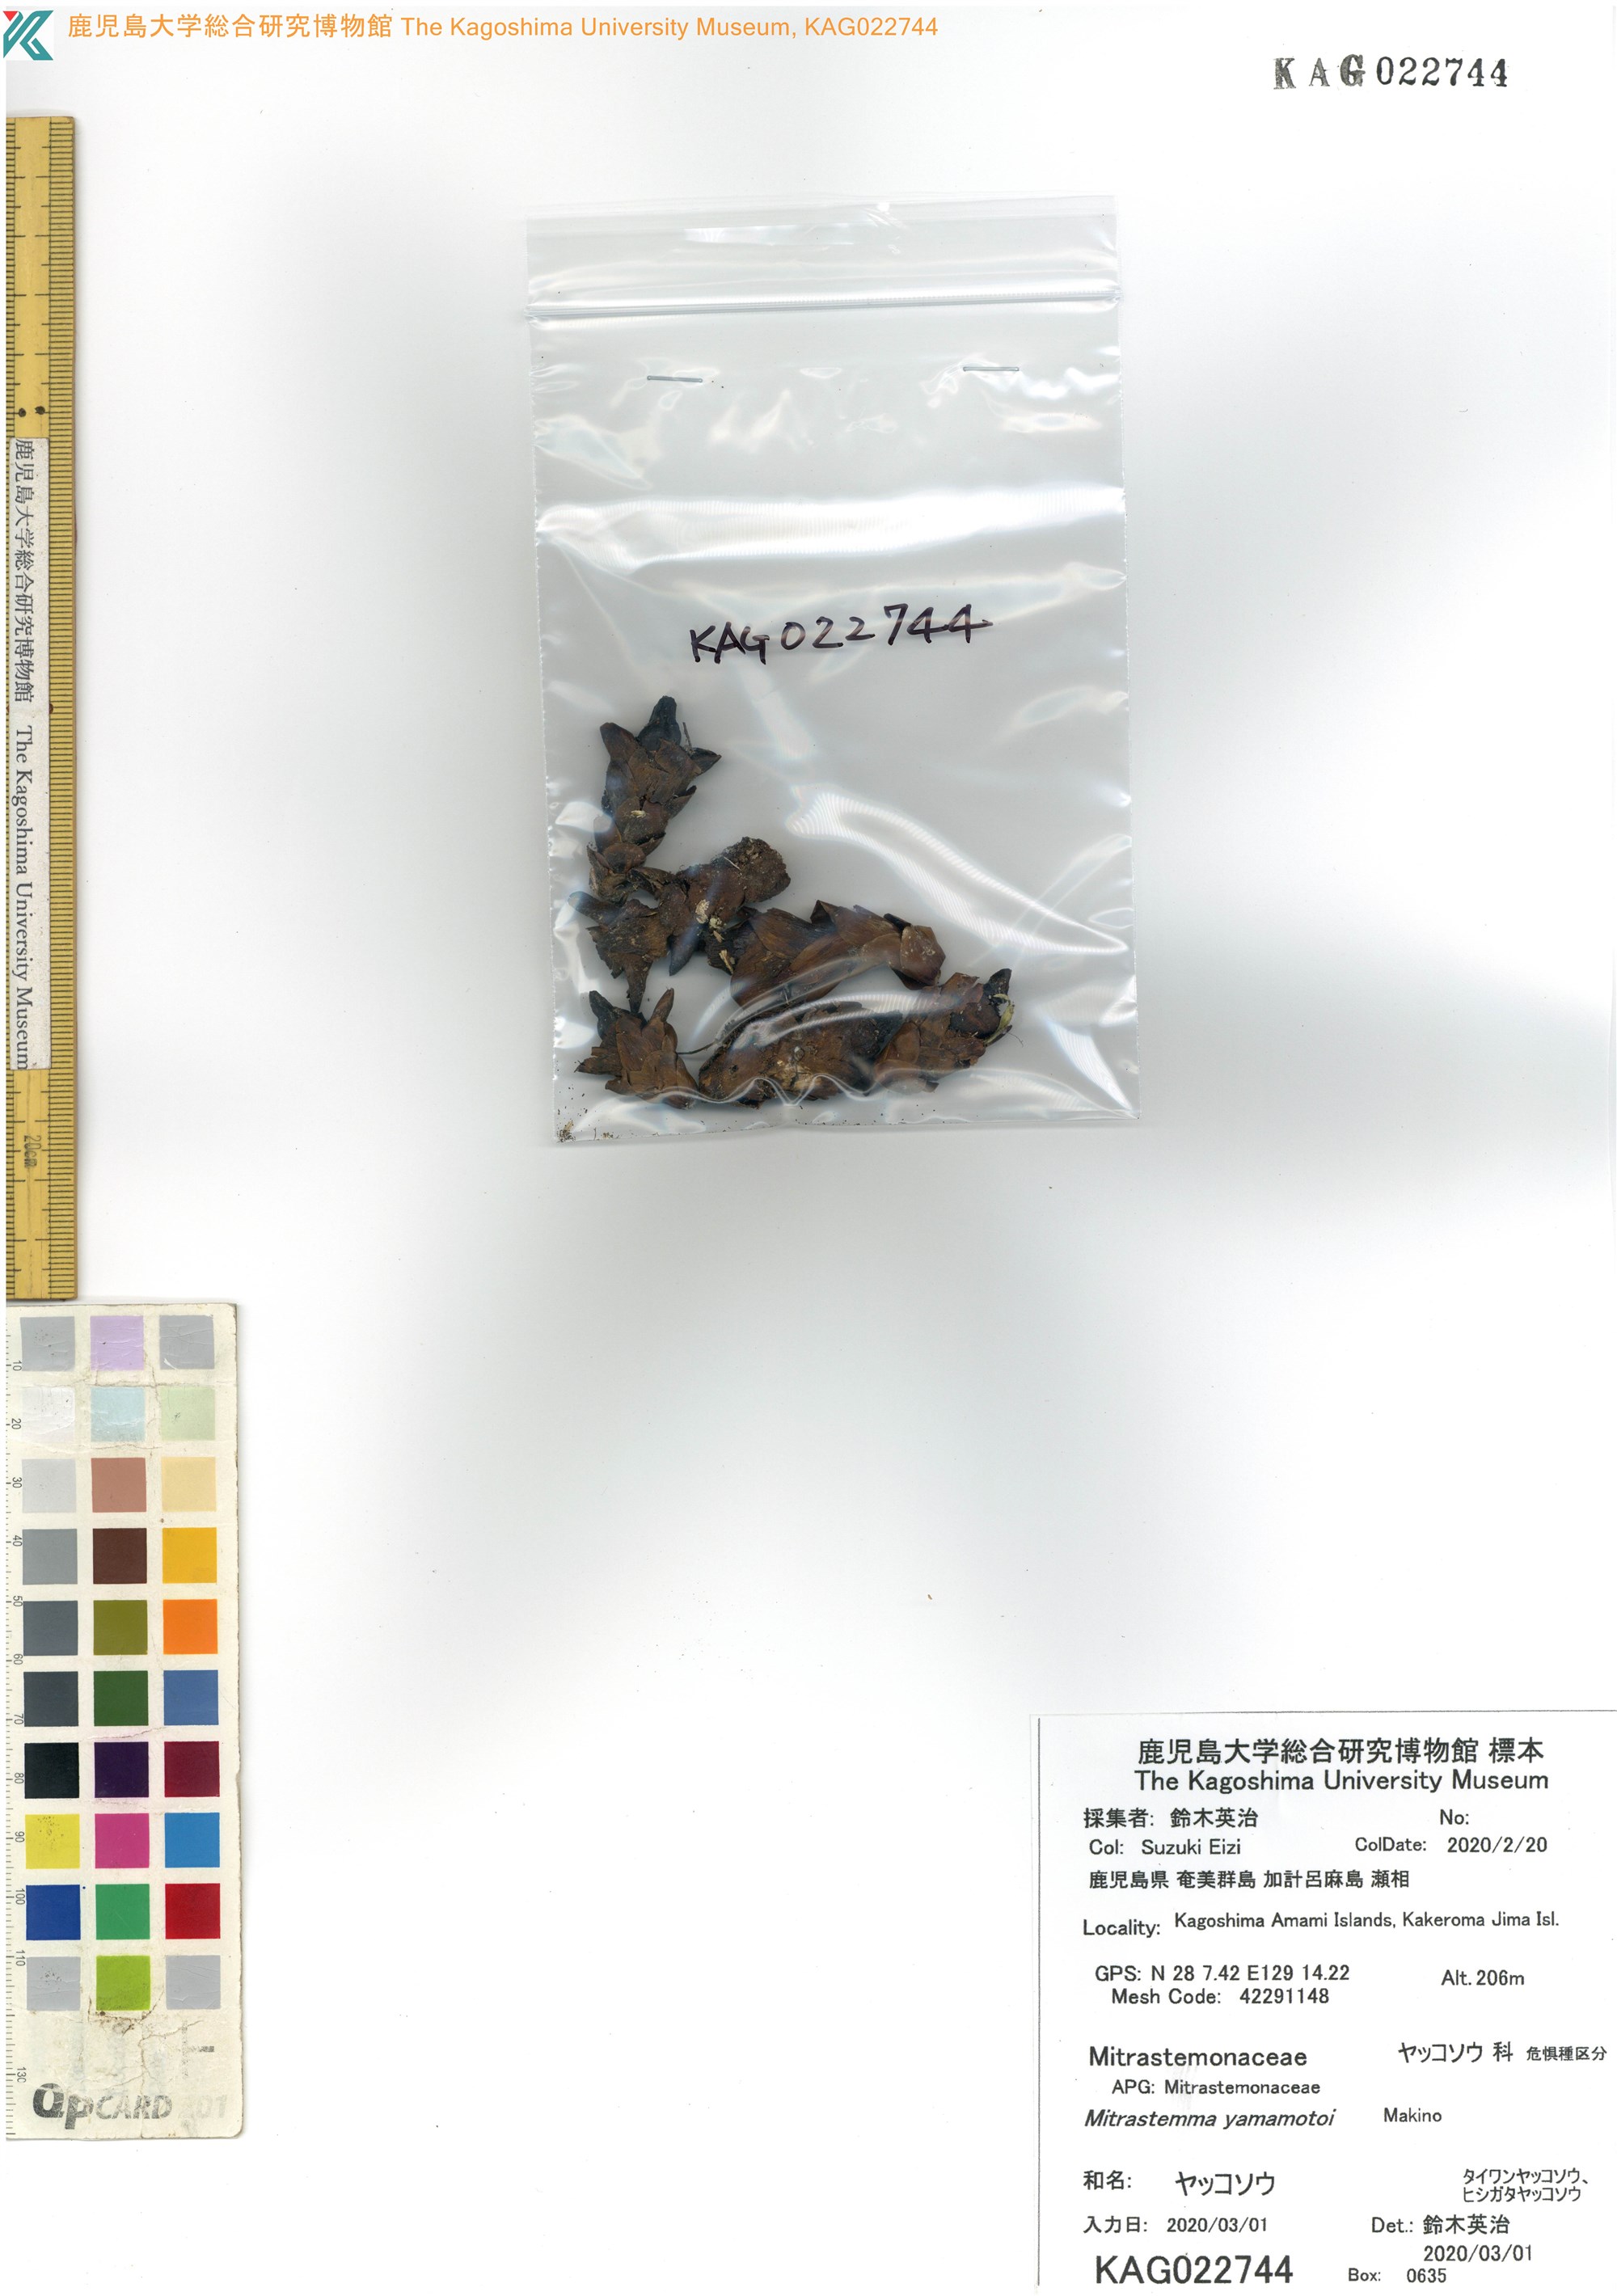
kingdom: Plantae
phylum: Tracheophyta
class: Magnoliopsida
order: Ericales
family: Mitrastemonaceae
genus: Mitrastemon
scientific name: Mitrastemon yamamotoi
